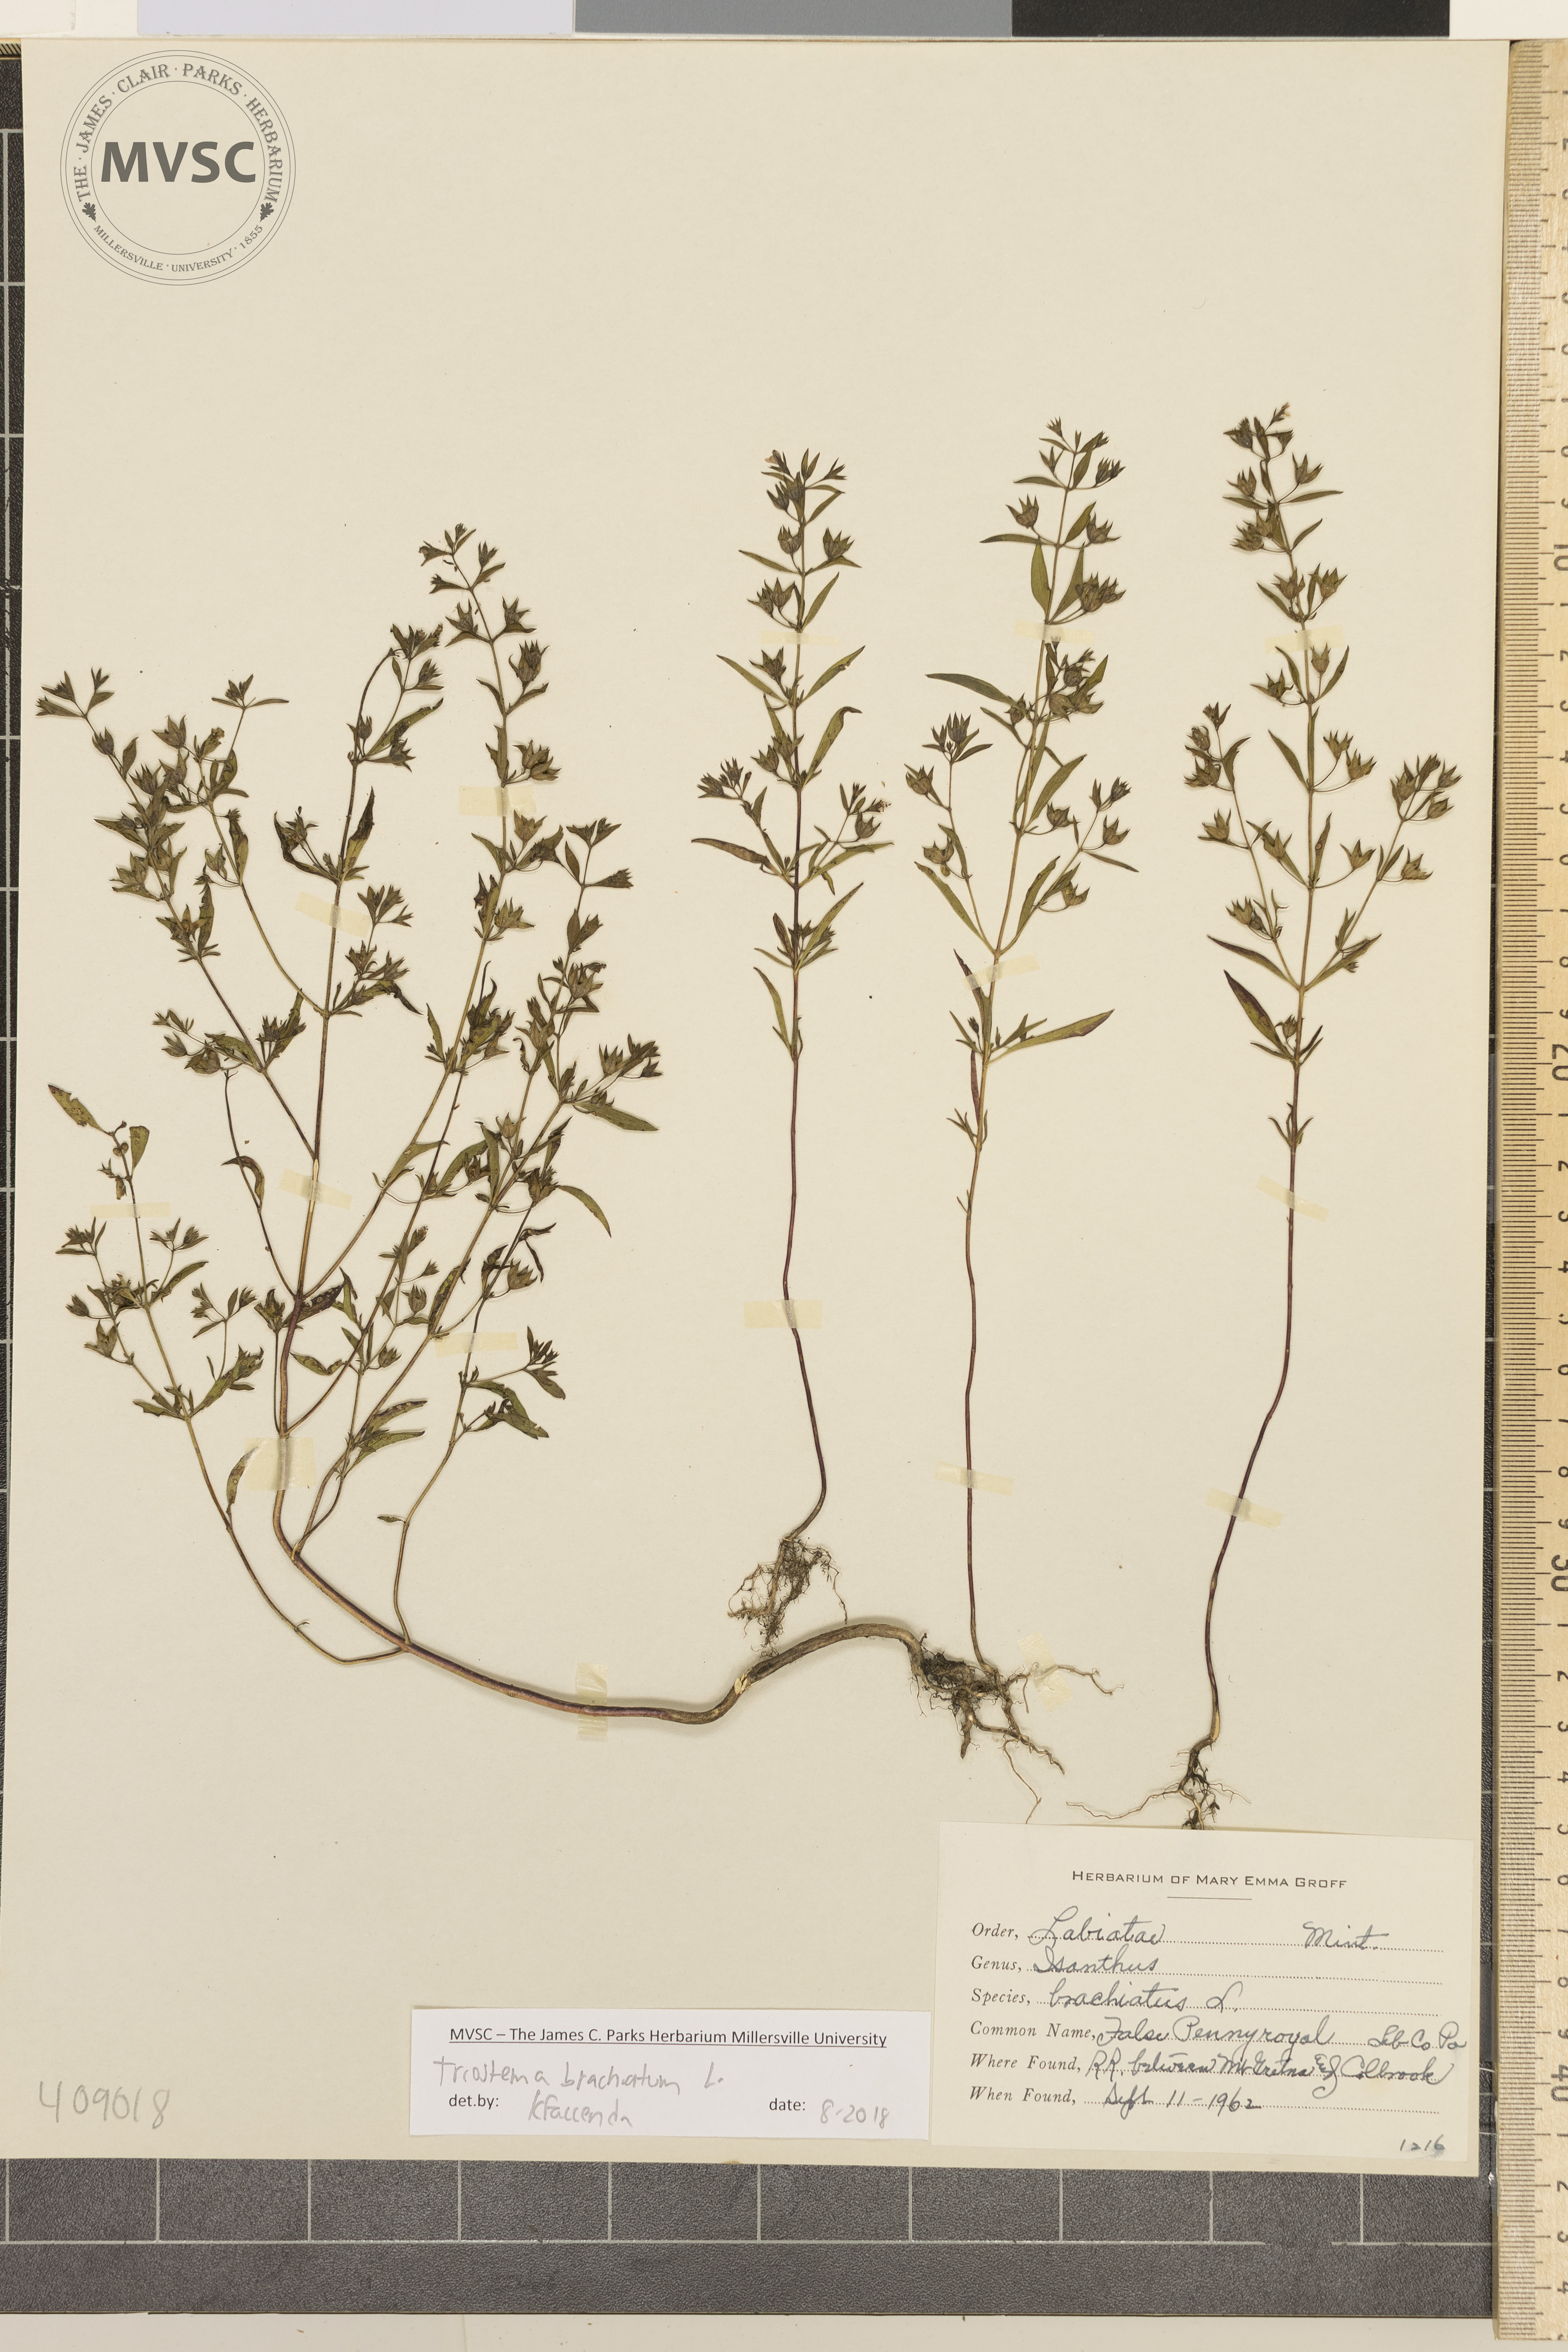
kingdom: Plantae
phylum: Tracheophyta
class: Magnoliopsida
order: Lamiales
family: Lamiaceae
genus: Trichostema
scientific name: Trichostema brachiatum
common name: False pennyroyal
